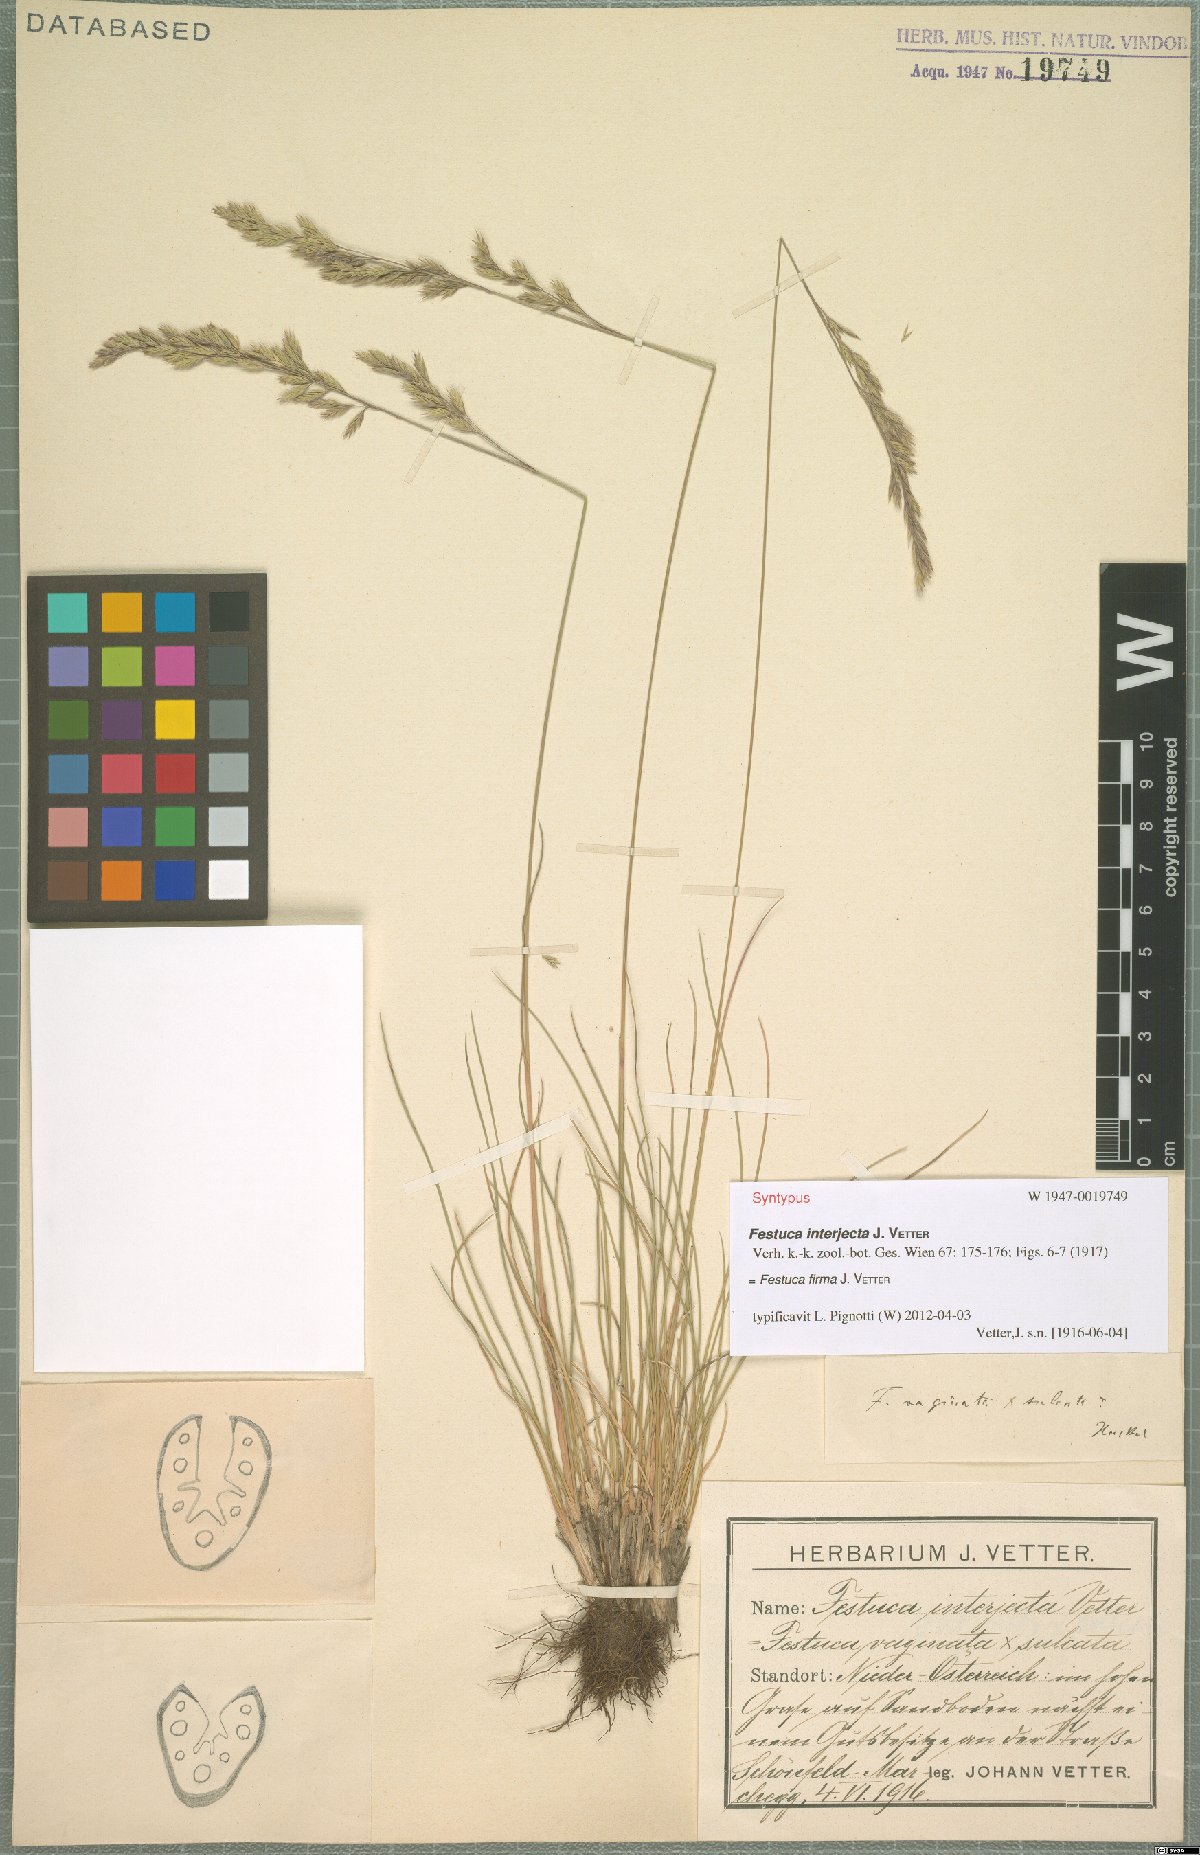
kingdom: Plantae
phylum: Tracheophyta
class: Liliopsida
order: Poales
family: Poaceae
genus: Festuca
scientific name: Festuca pulchra
